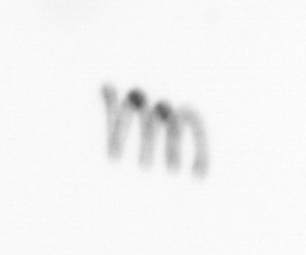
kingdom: Chromista
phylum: Ochrophyta
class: Bacillariophyceae
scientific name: Bacillariophyceae
